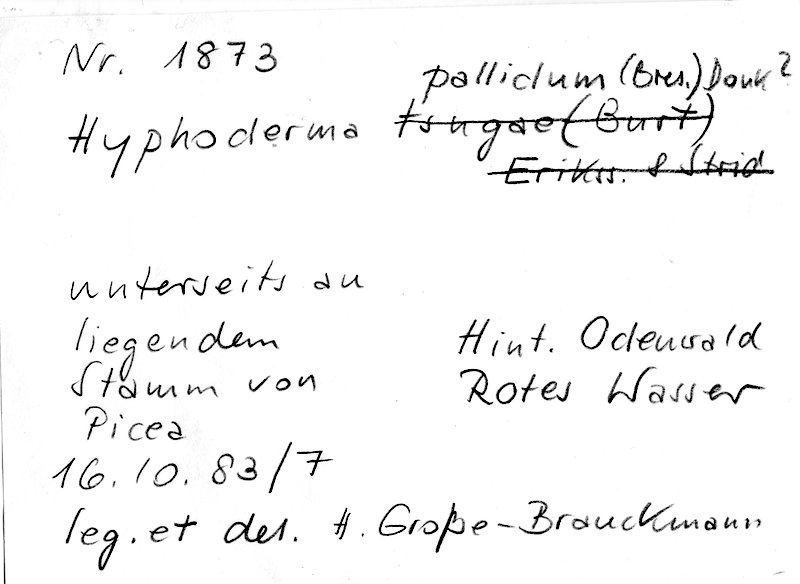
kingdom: Plantae
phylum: Tracheophyta
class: Pinopsida
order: Pinales
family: Pinaceae
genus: Picea
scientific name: Picea
